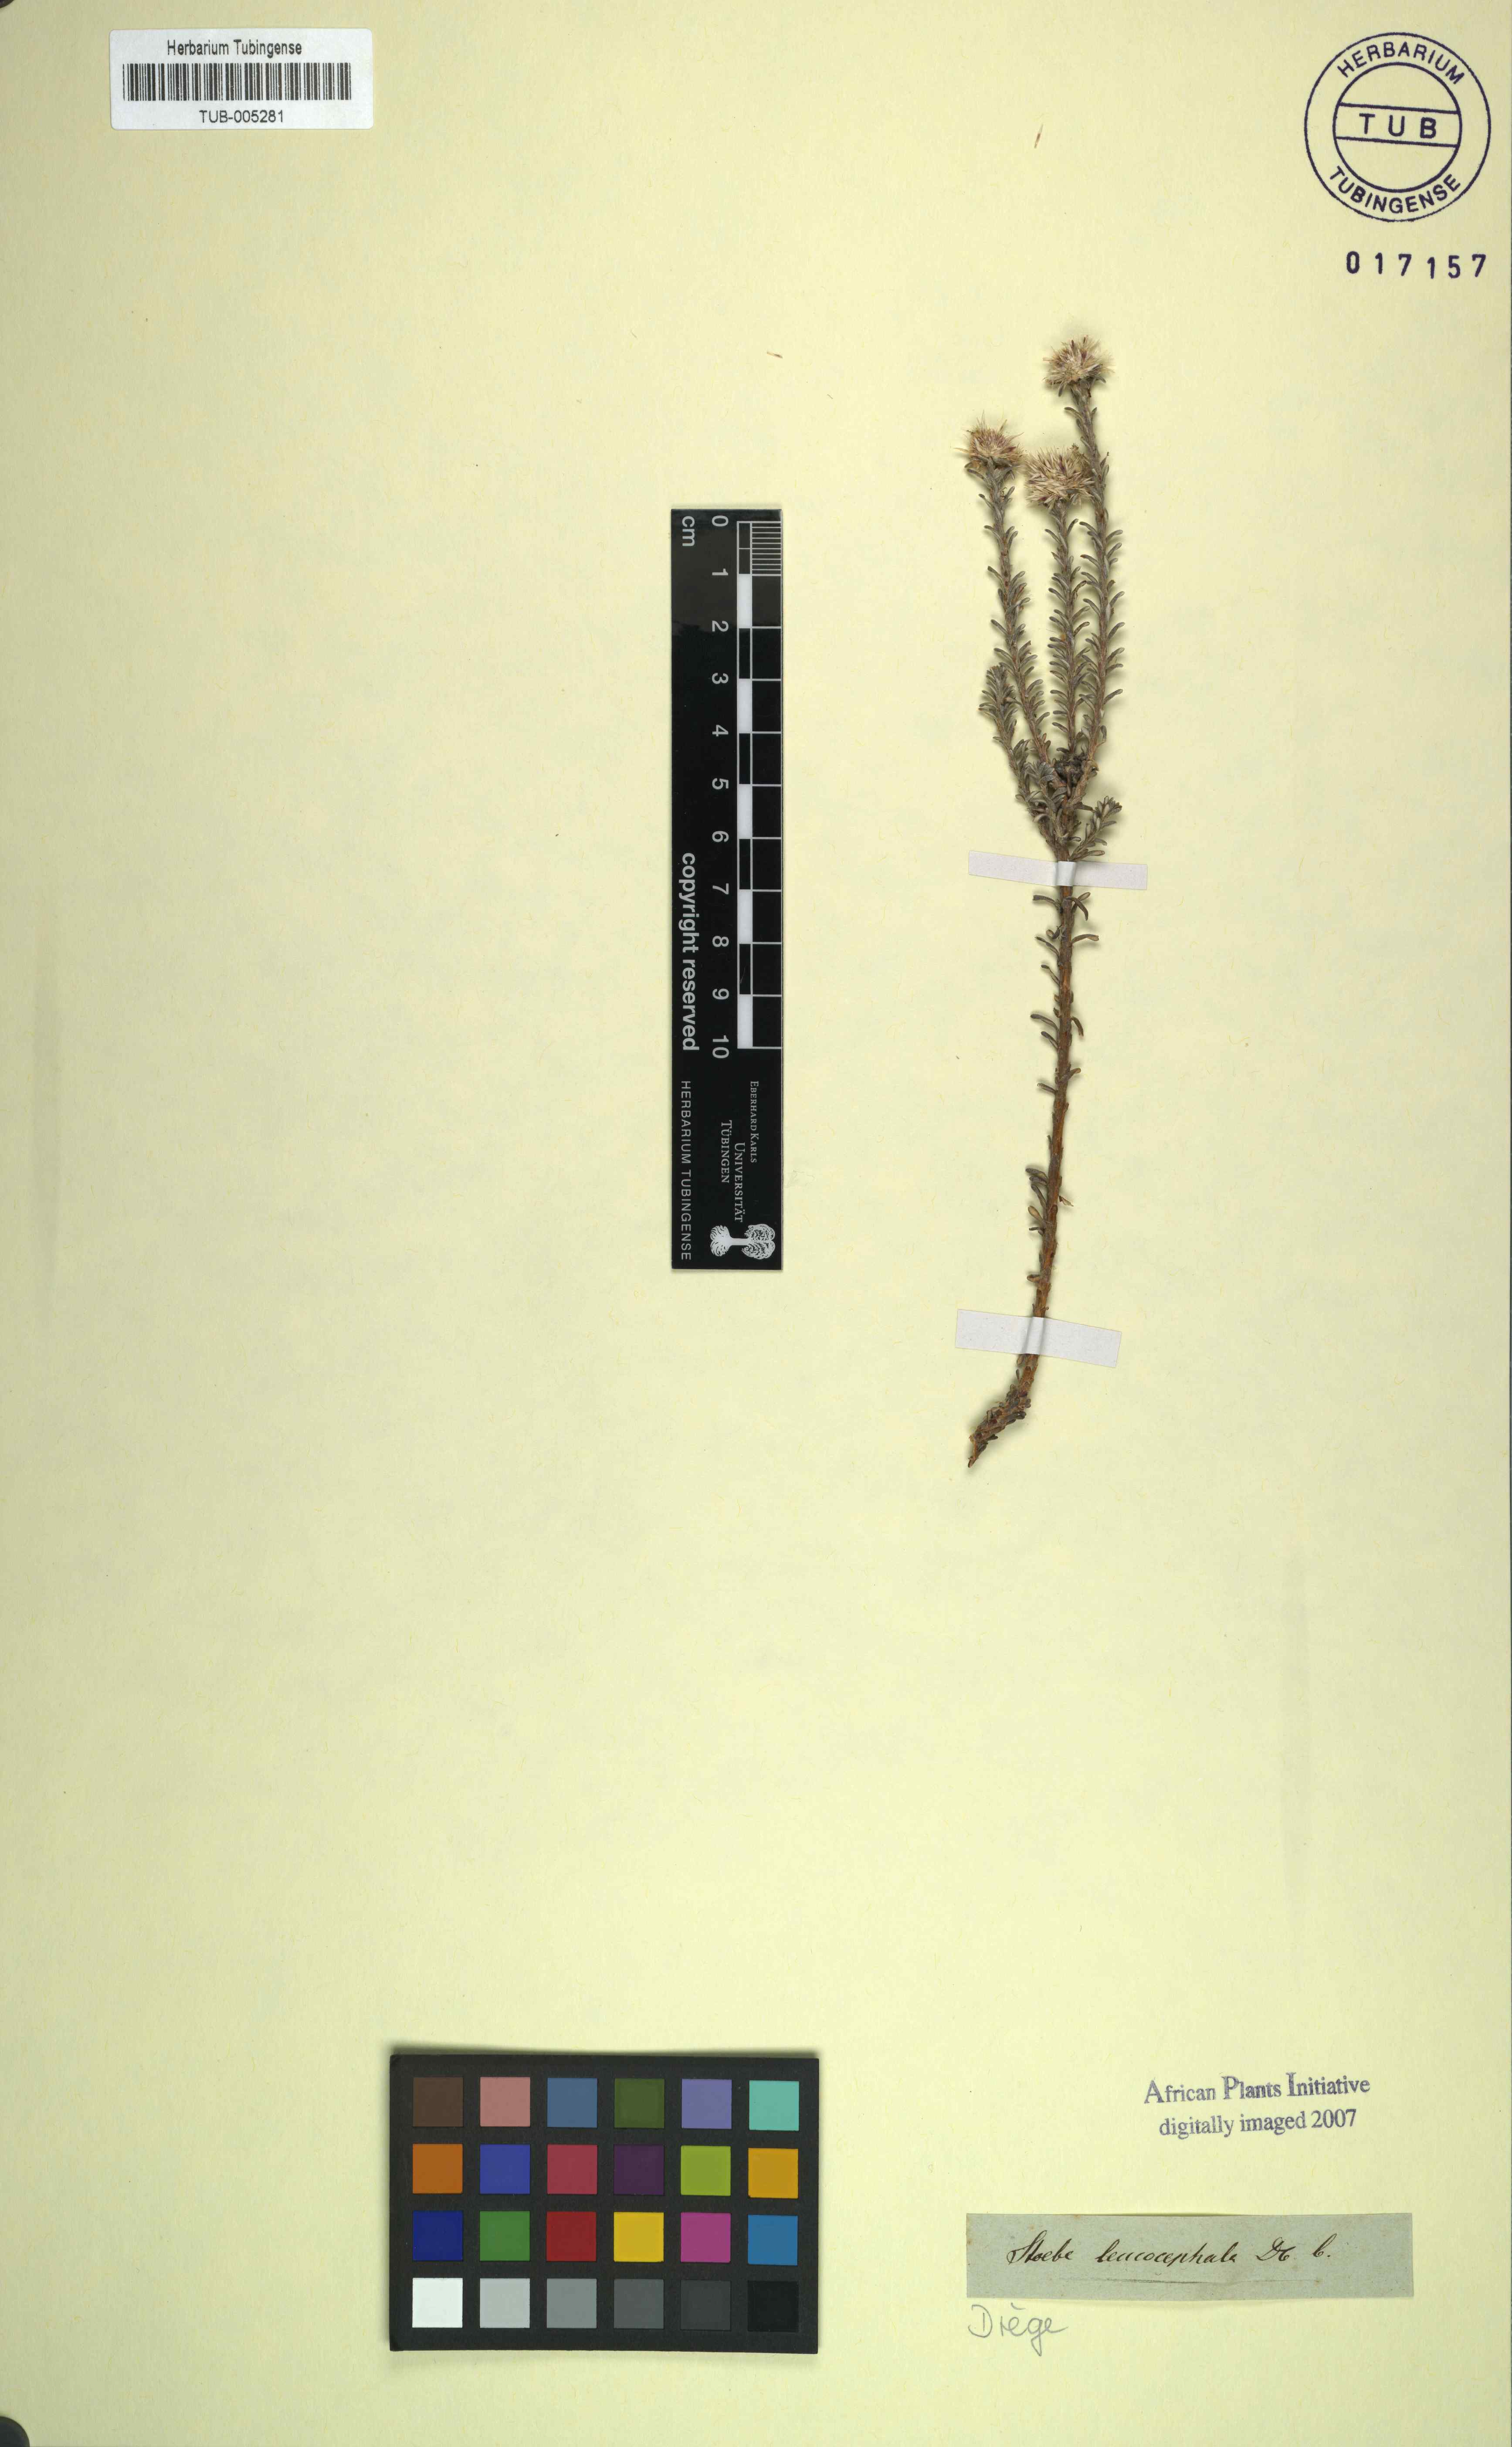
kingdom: Plantae
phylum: Tracheophyta
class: Magnoliopsida
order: Asterales
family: Asteraceae
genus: Stoebe
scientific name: Stoebe leucocephala
